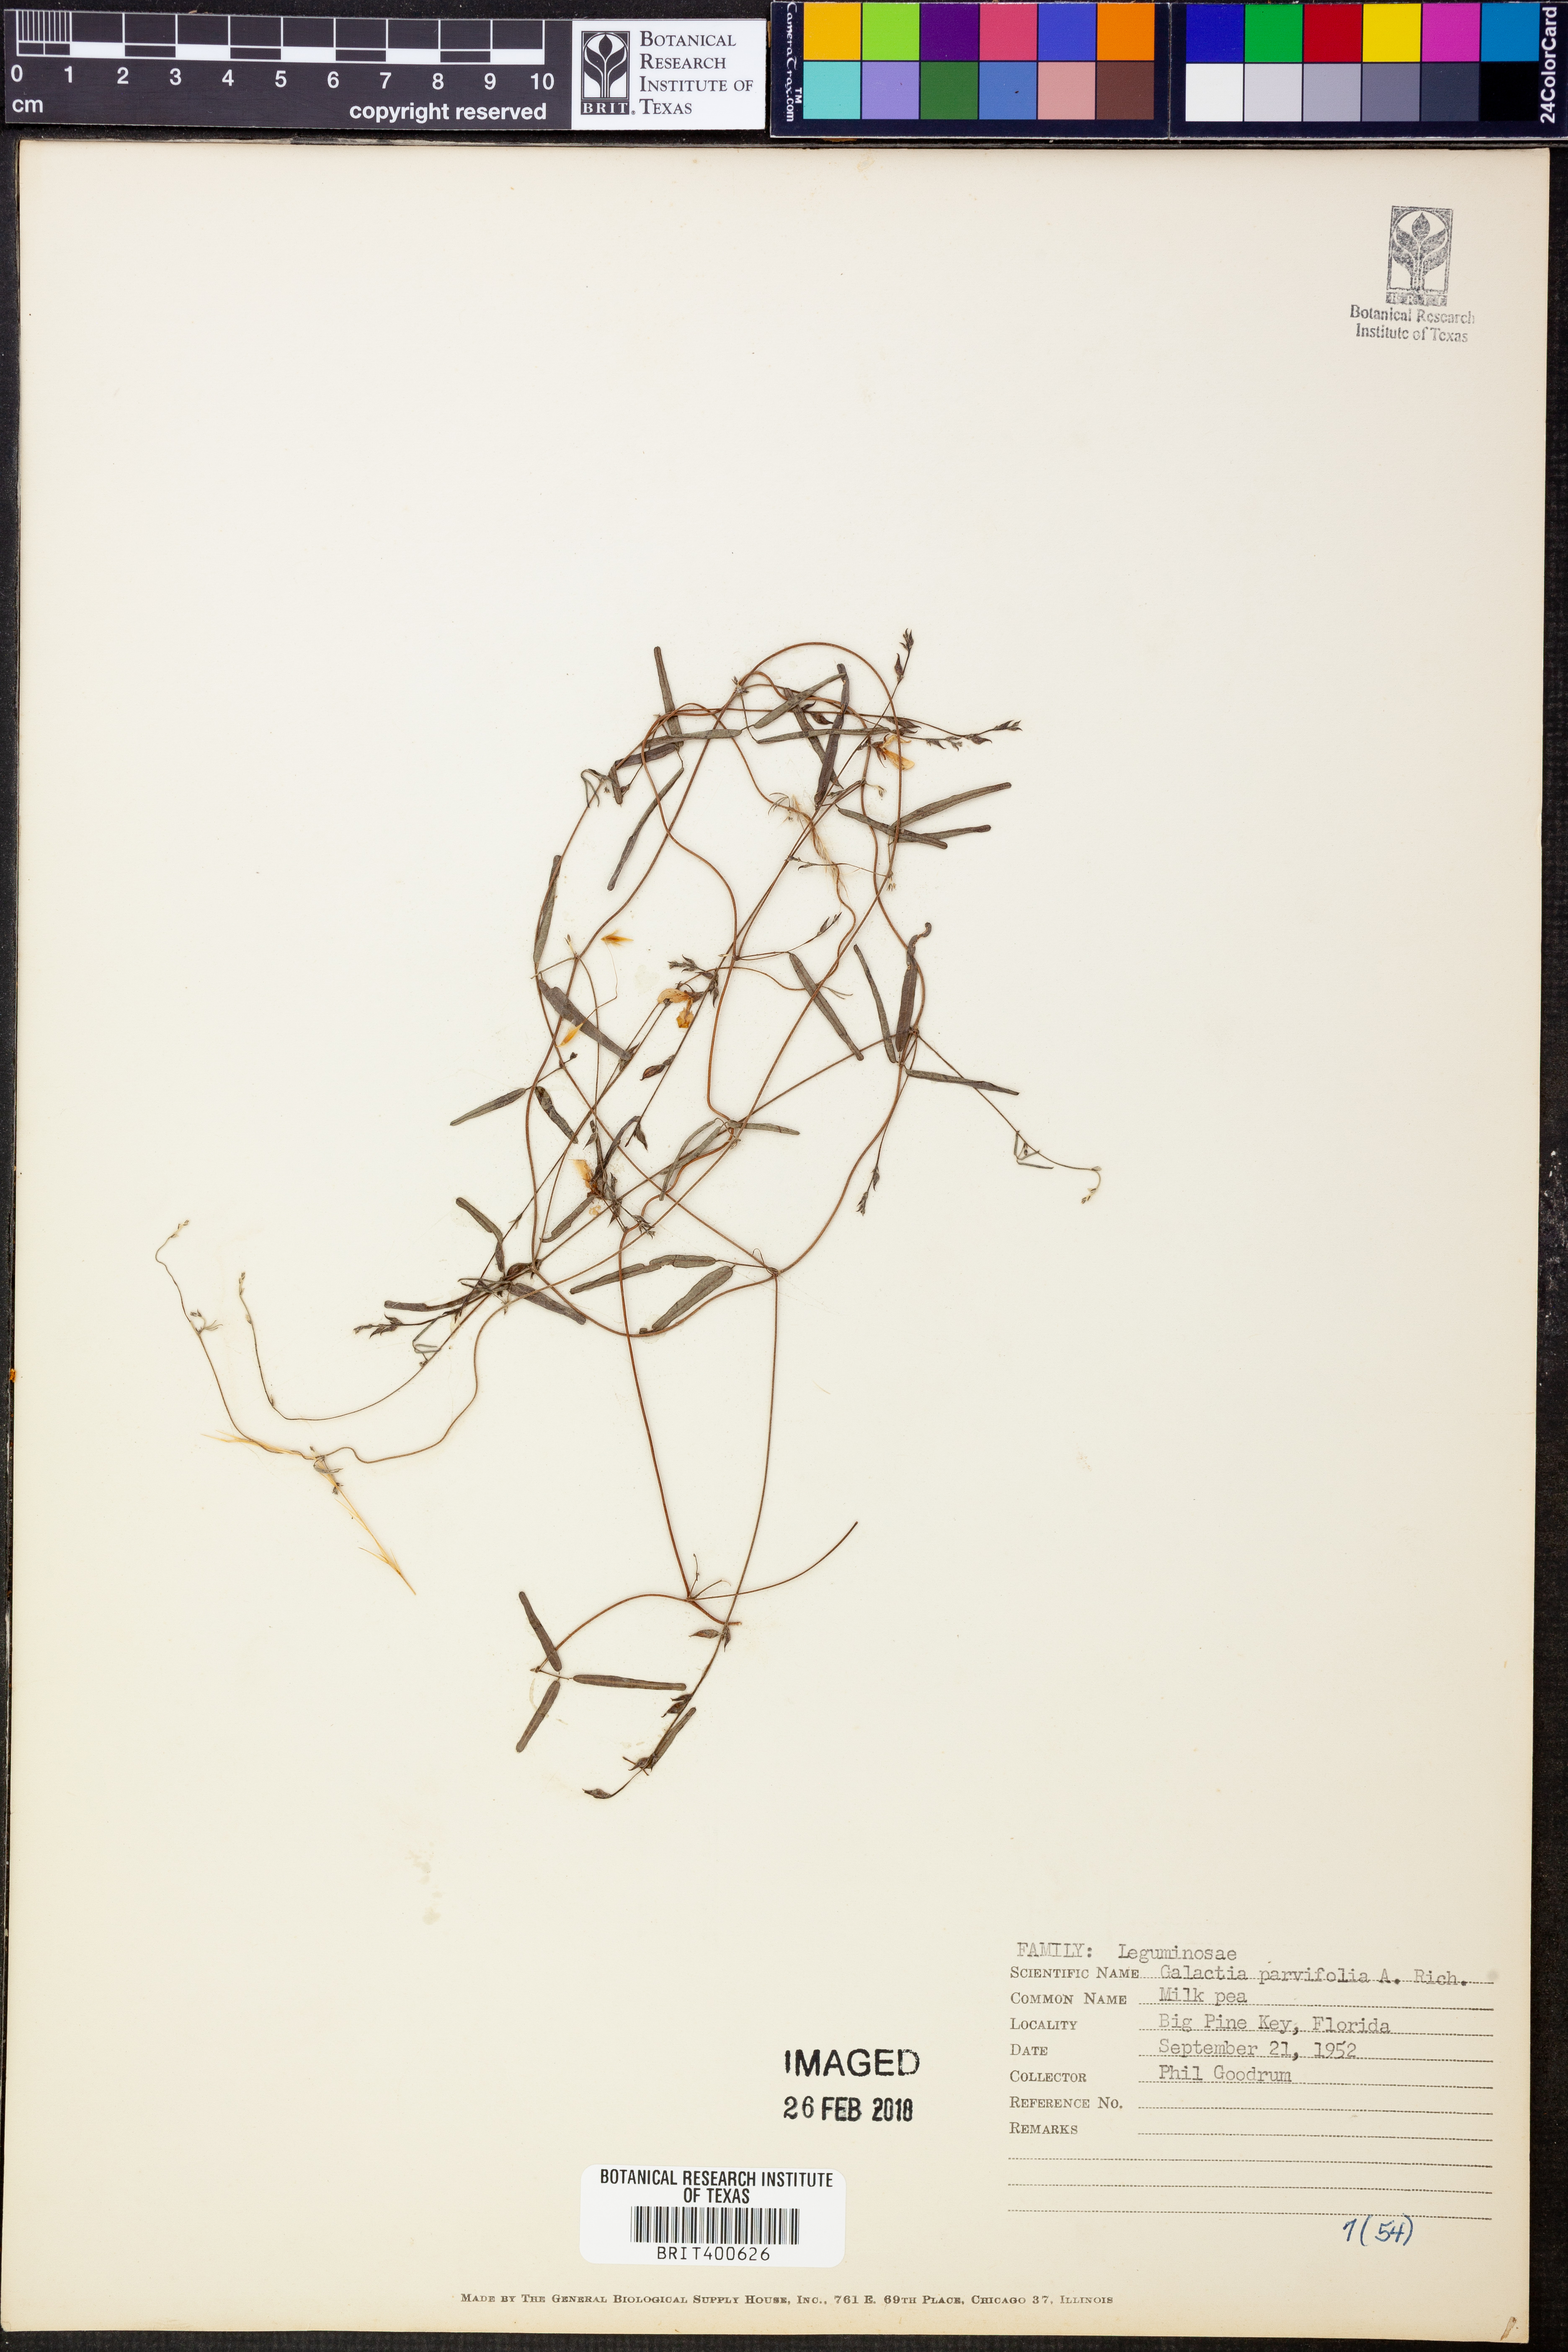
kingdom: Plantae
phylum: Tracheophyta
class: Magnoliopsida
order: Fabales
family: Fabaceae
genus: Galactia
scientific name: Galactia parvifolia
